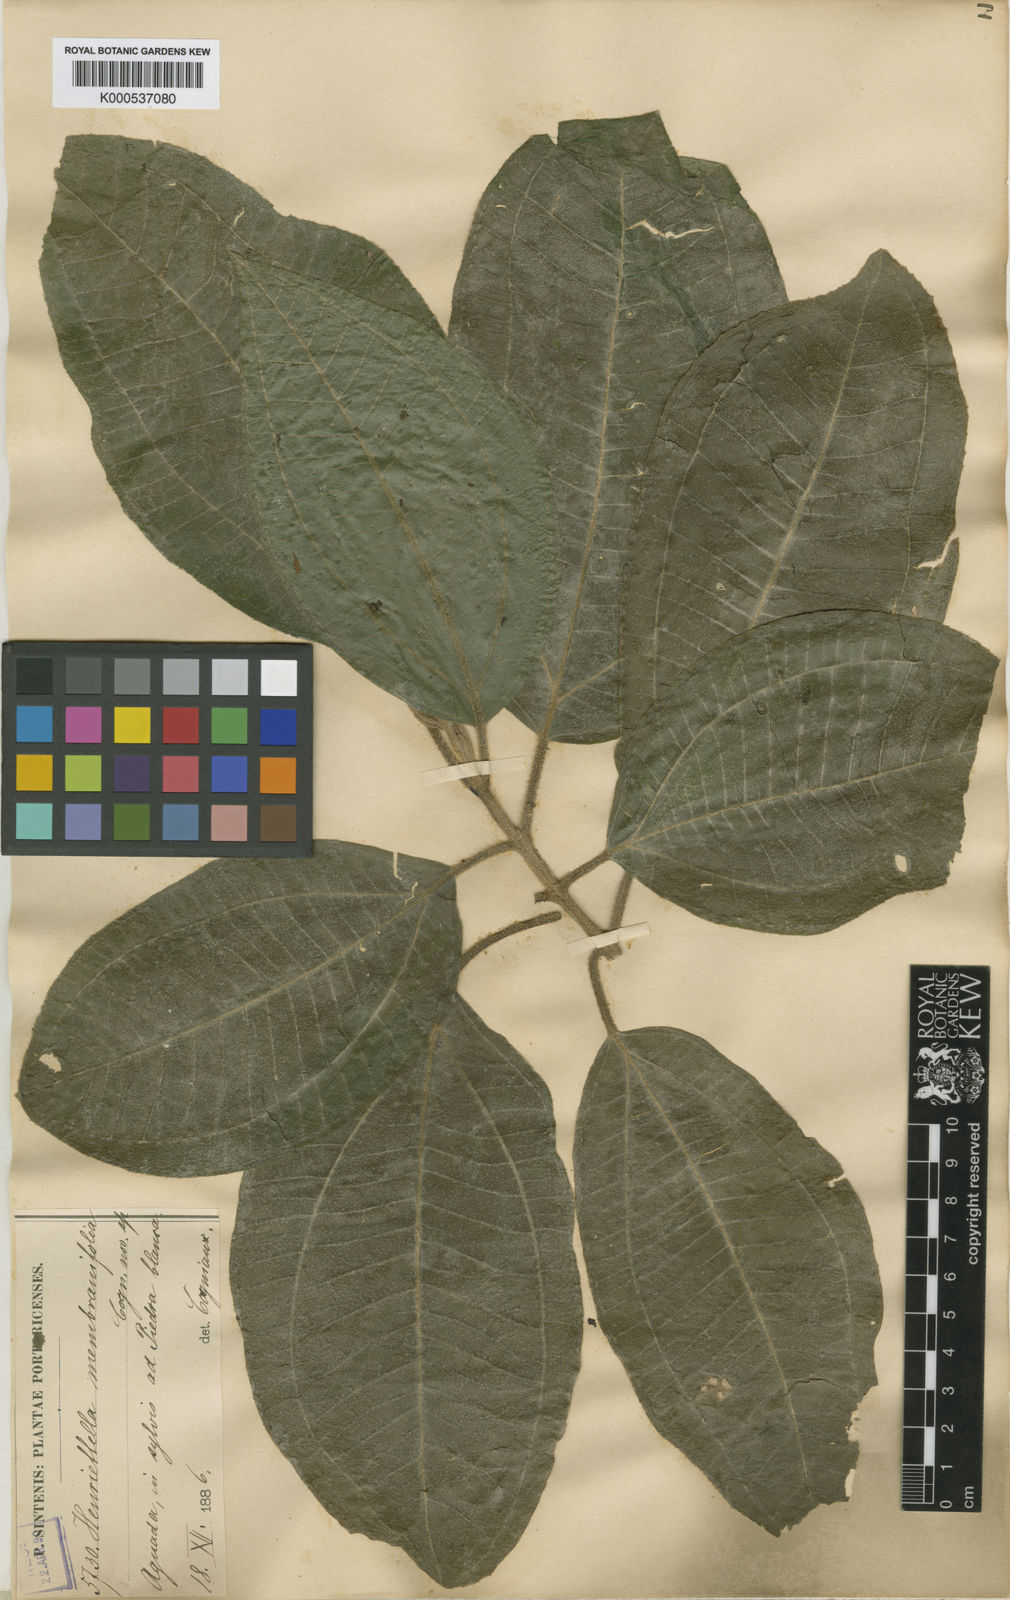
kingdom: Plantae
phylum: Tracheophyta
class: Magnoliopsida
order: Myrtales
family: Melastomataceae
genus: Henriettea
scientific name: Henriettea membranifolia
